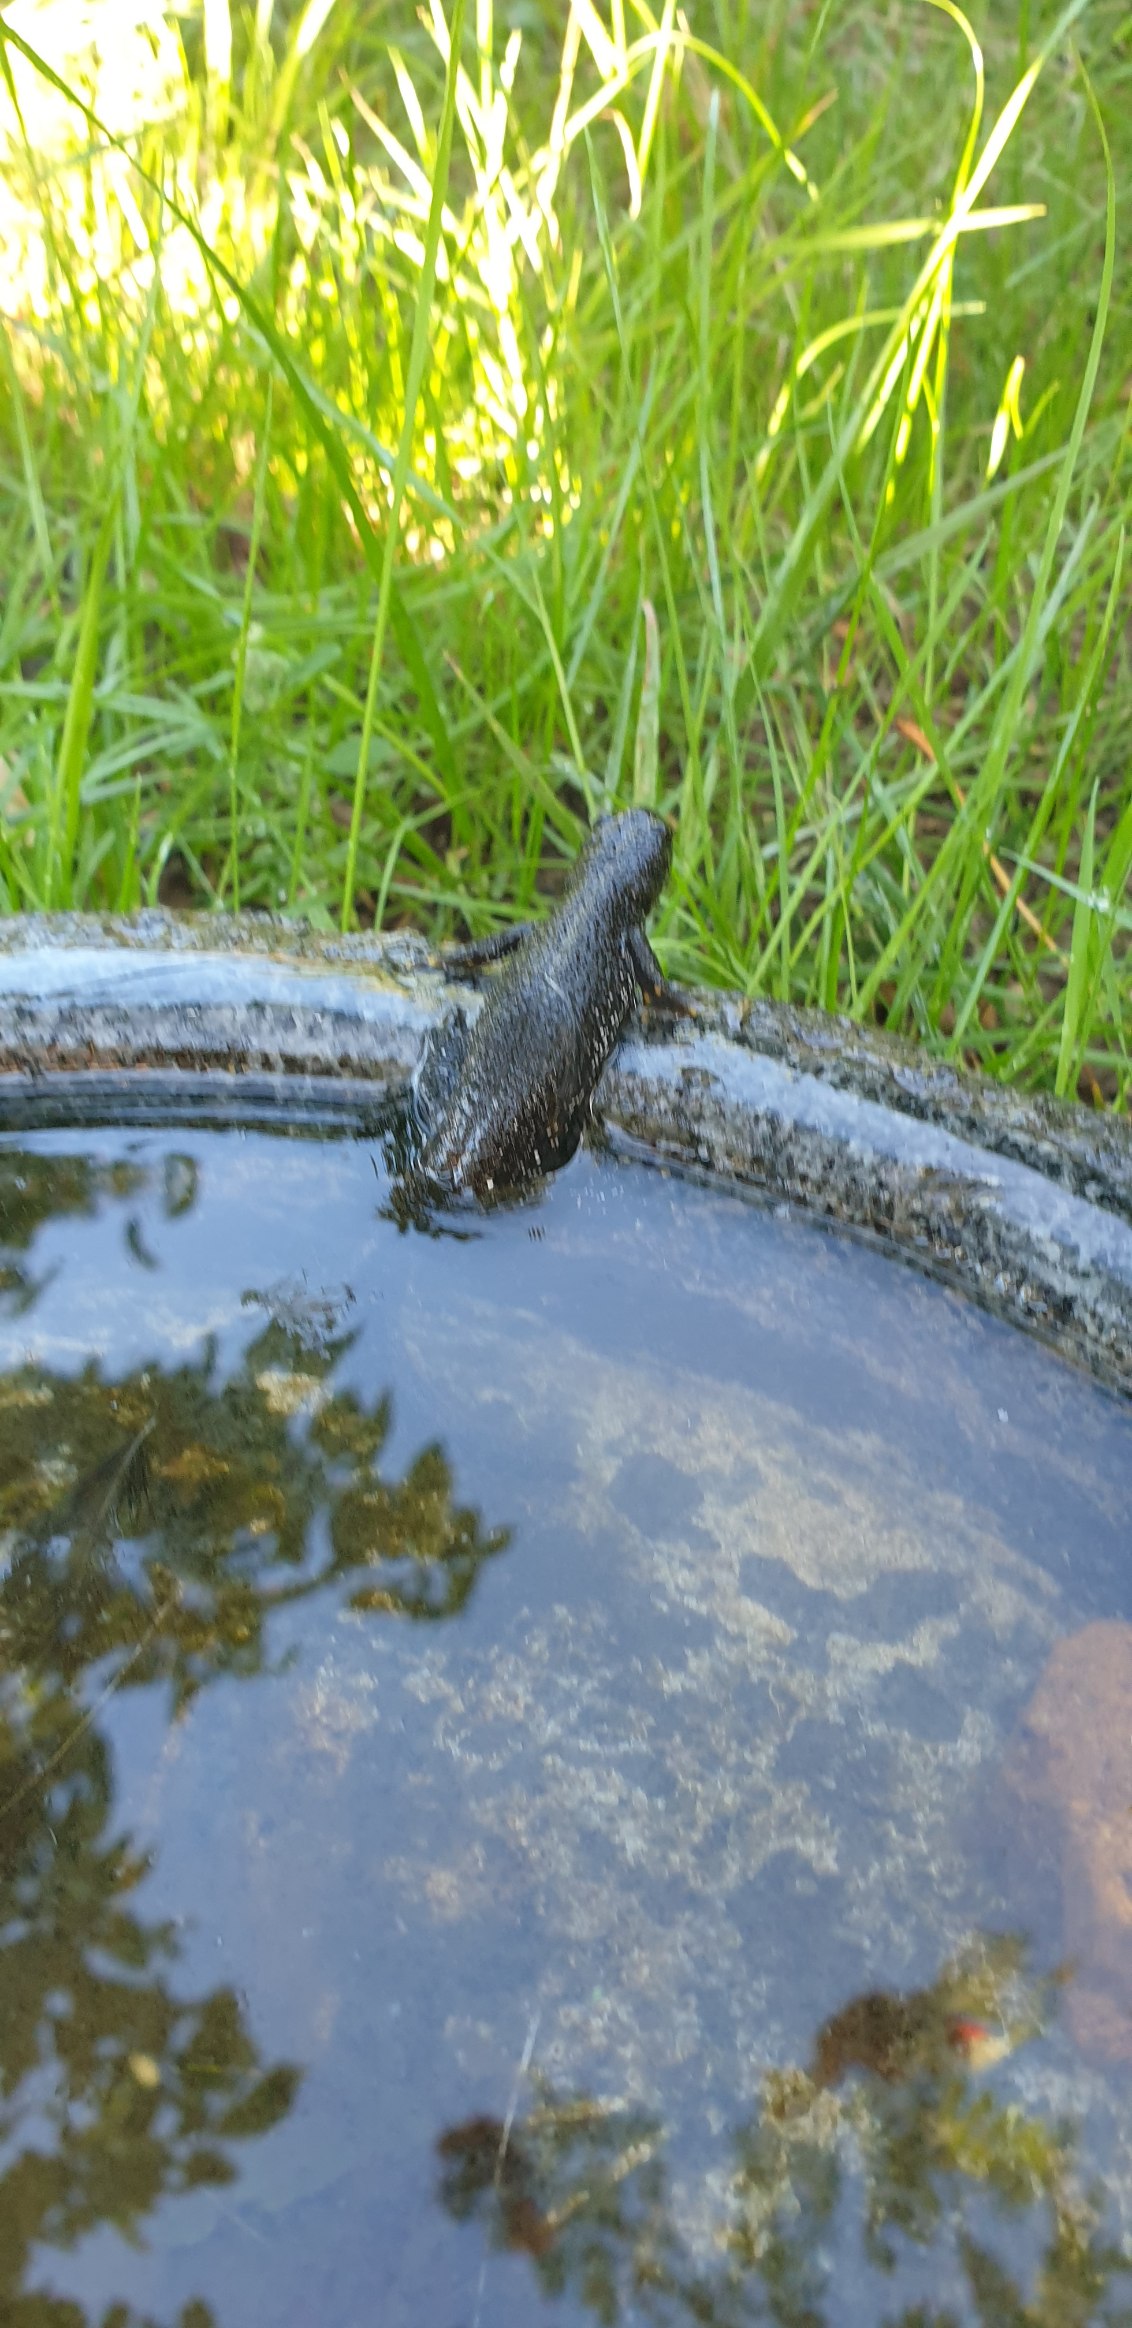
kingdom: Animalia
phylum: Chordata
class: Amphibia
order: Caudata
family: Salamandridae
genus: Triturus
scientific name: Triturus cristatus
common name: Stor vandsalamander
